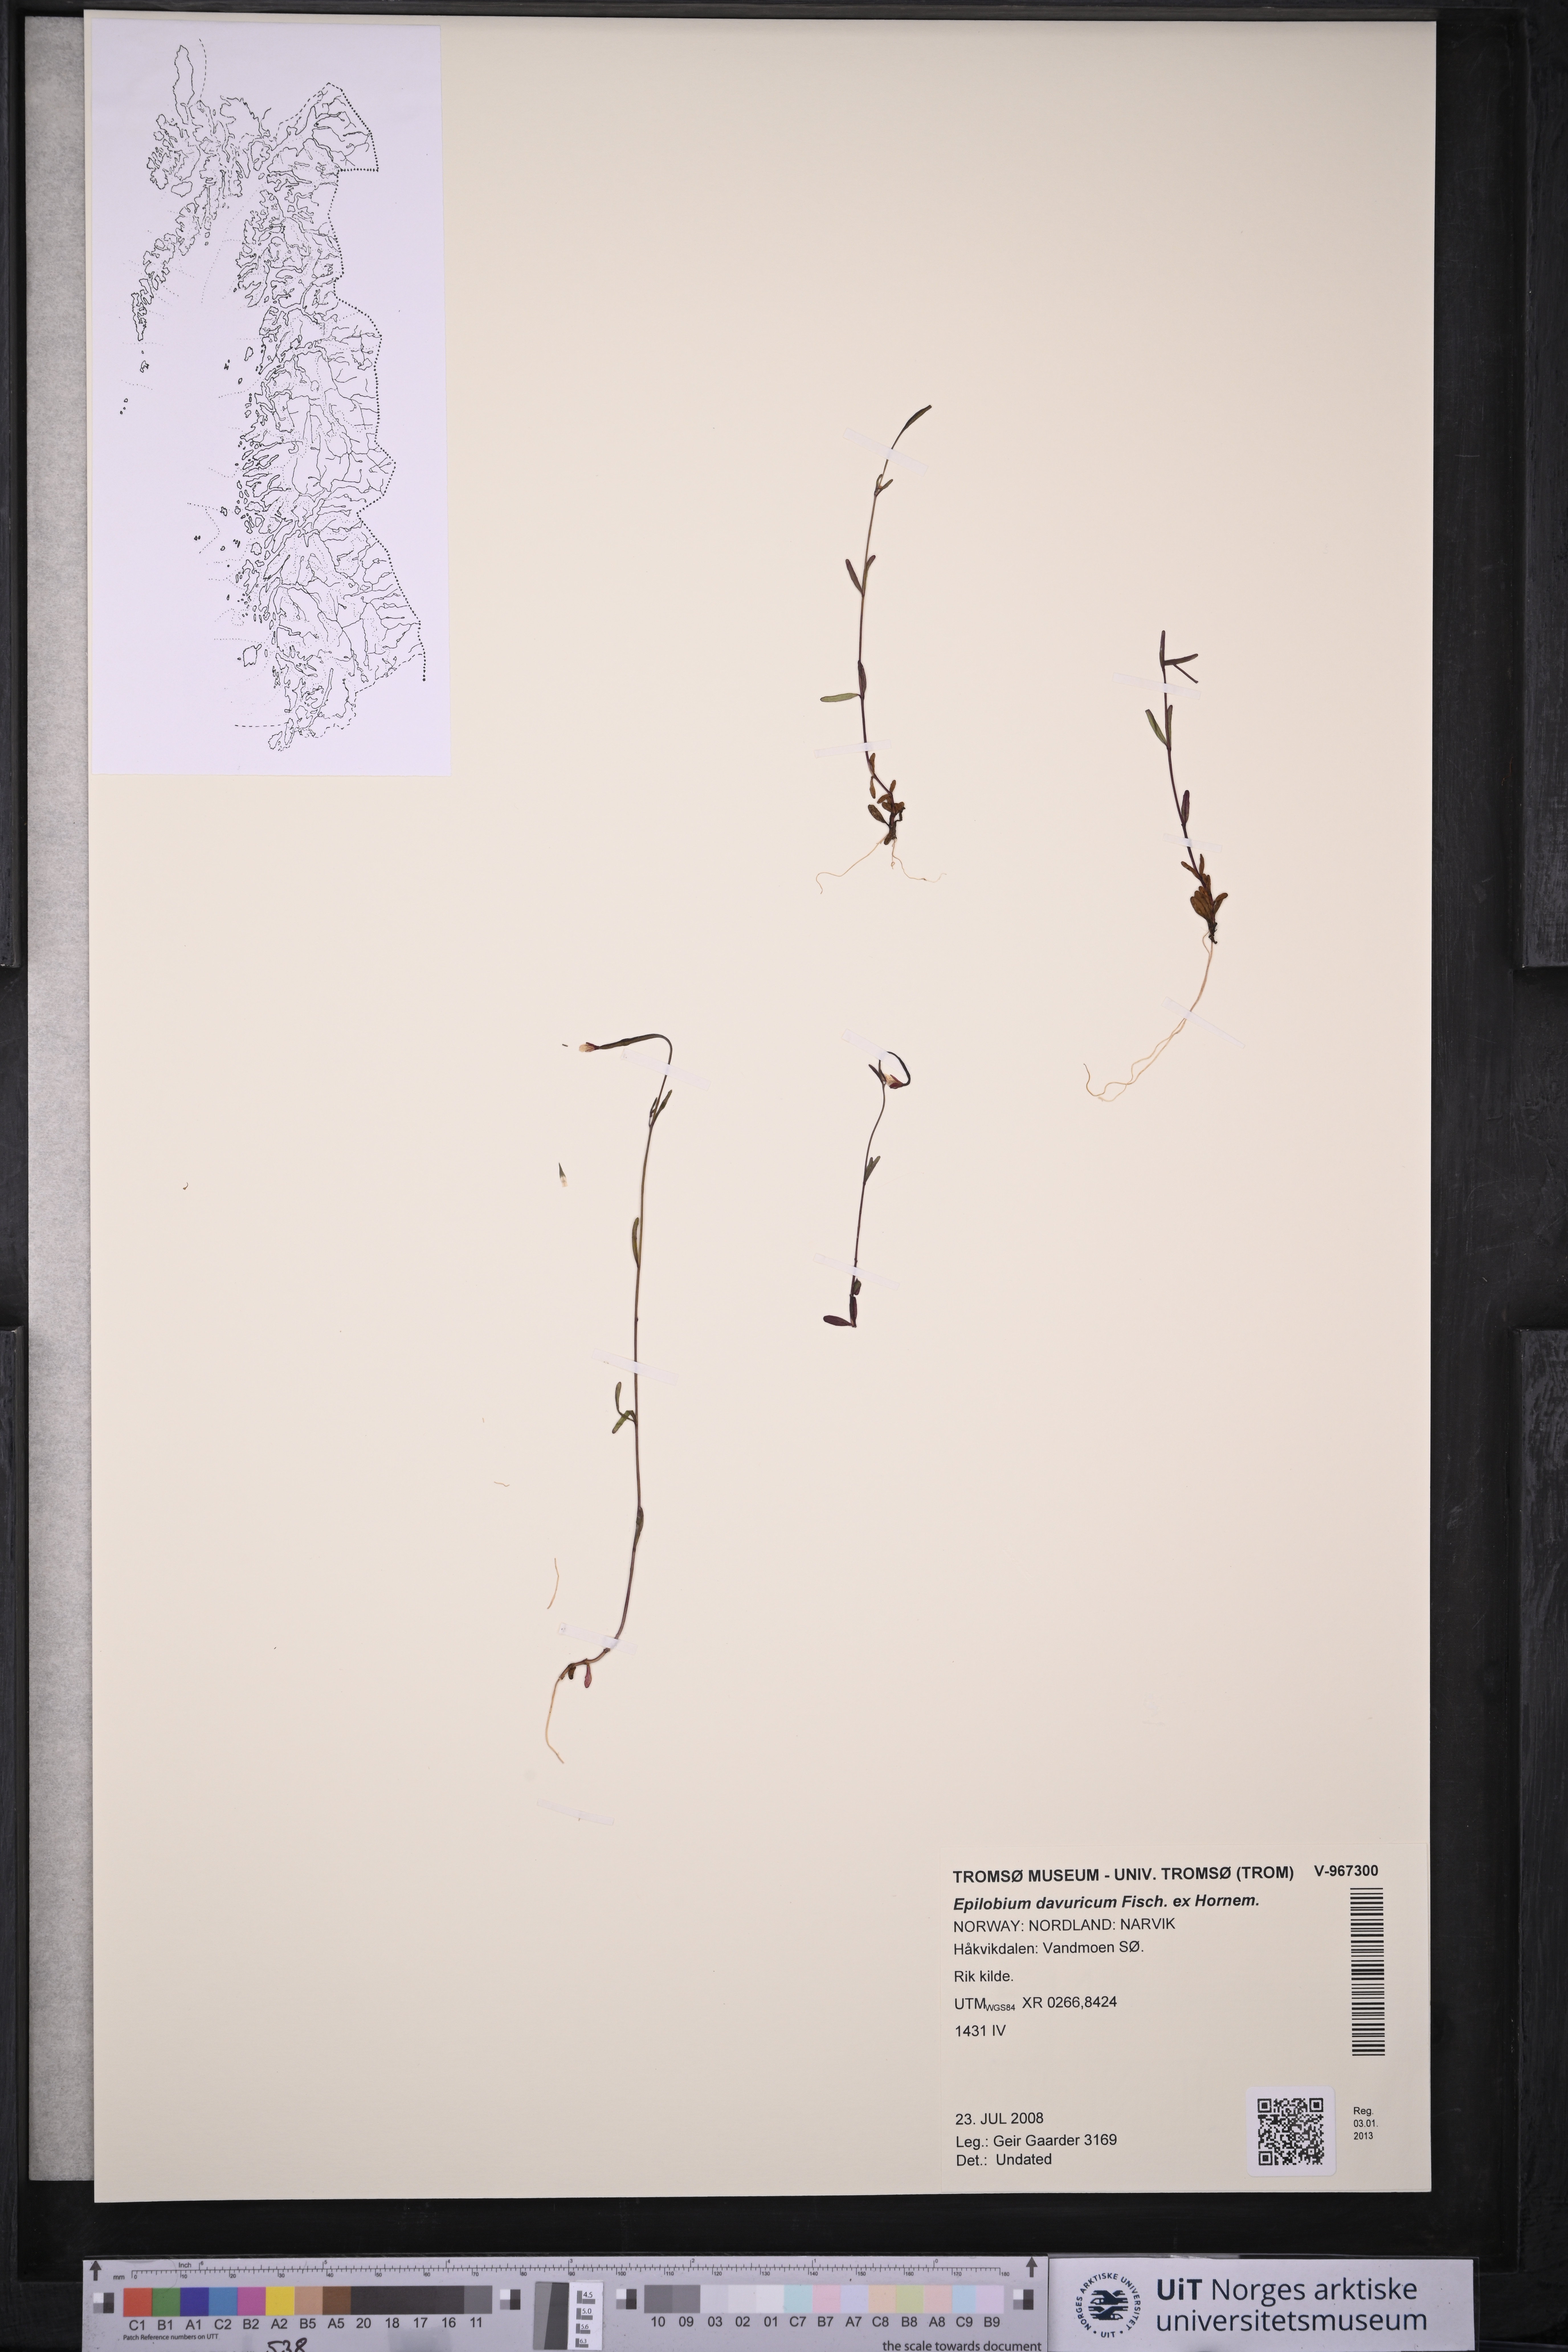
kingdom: Plantae
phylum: Tracheophyta
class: Magnoliopsida
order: Myrtales
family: Onagraceae
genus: Epilobium
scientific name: Epilobium davuricum
